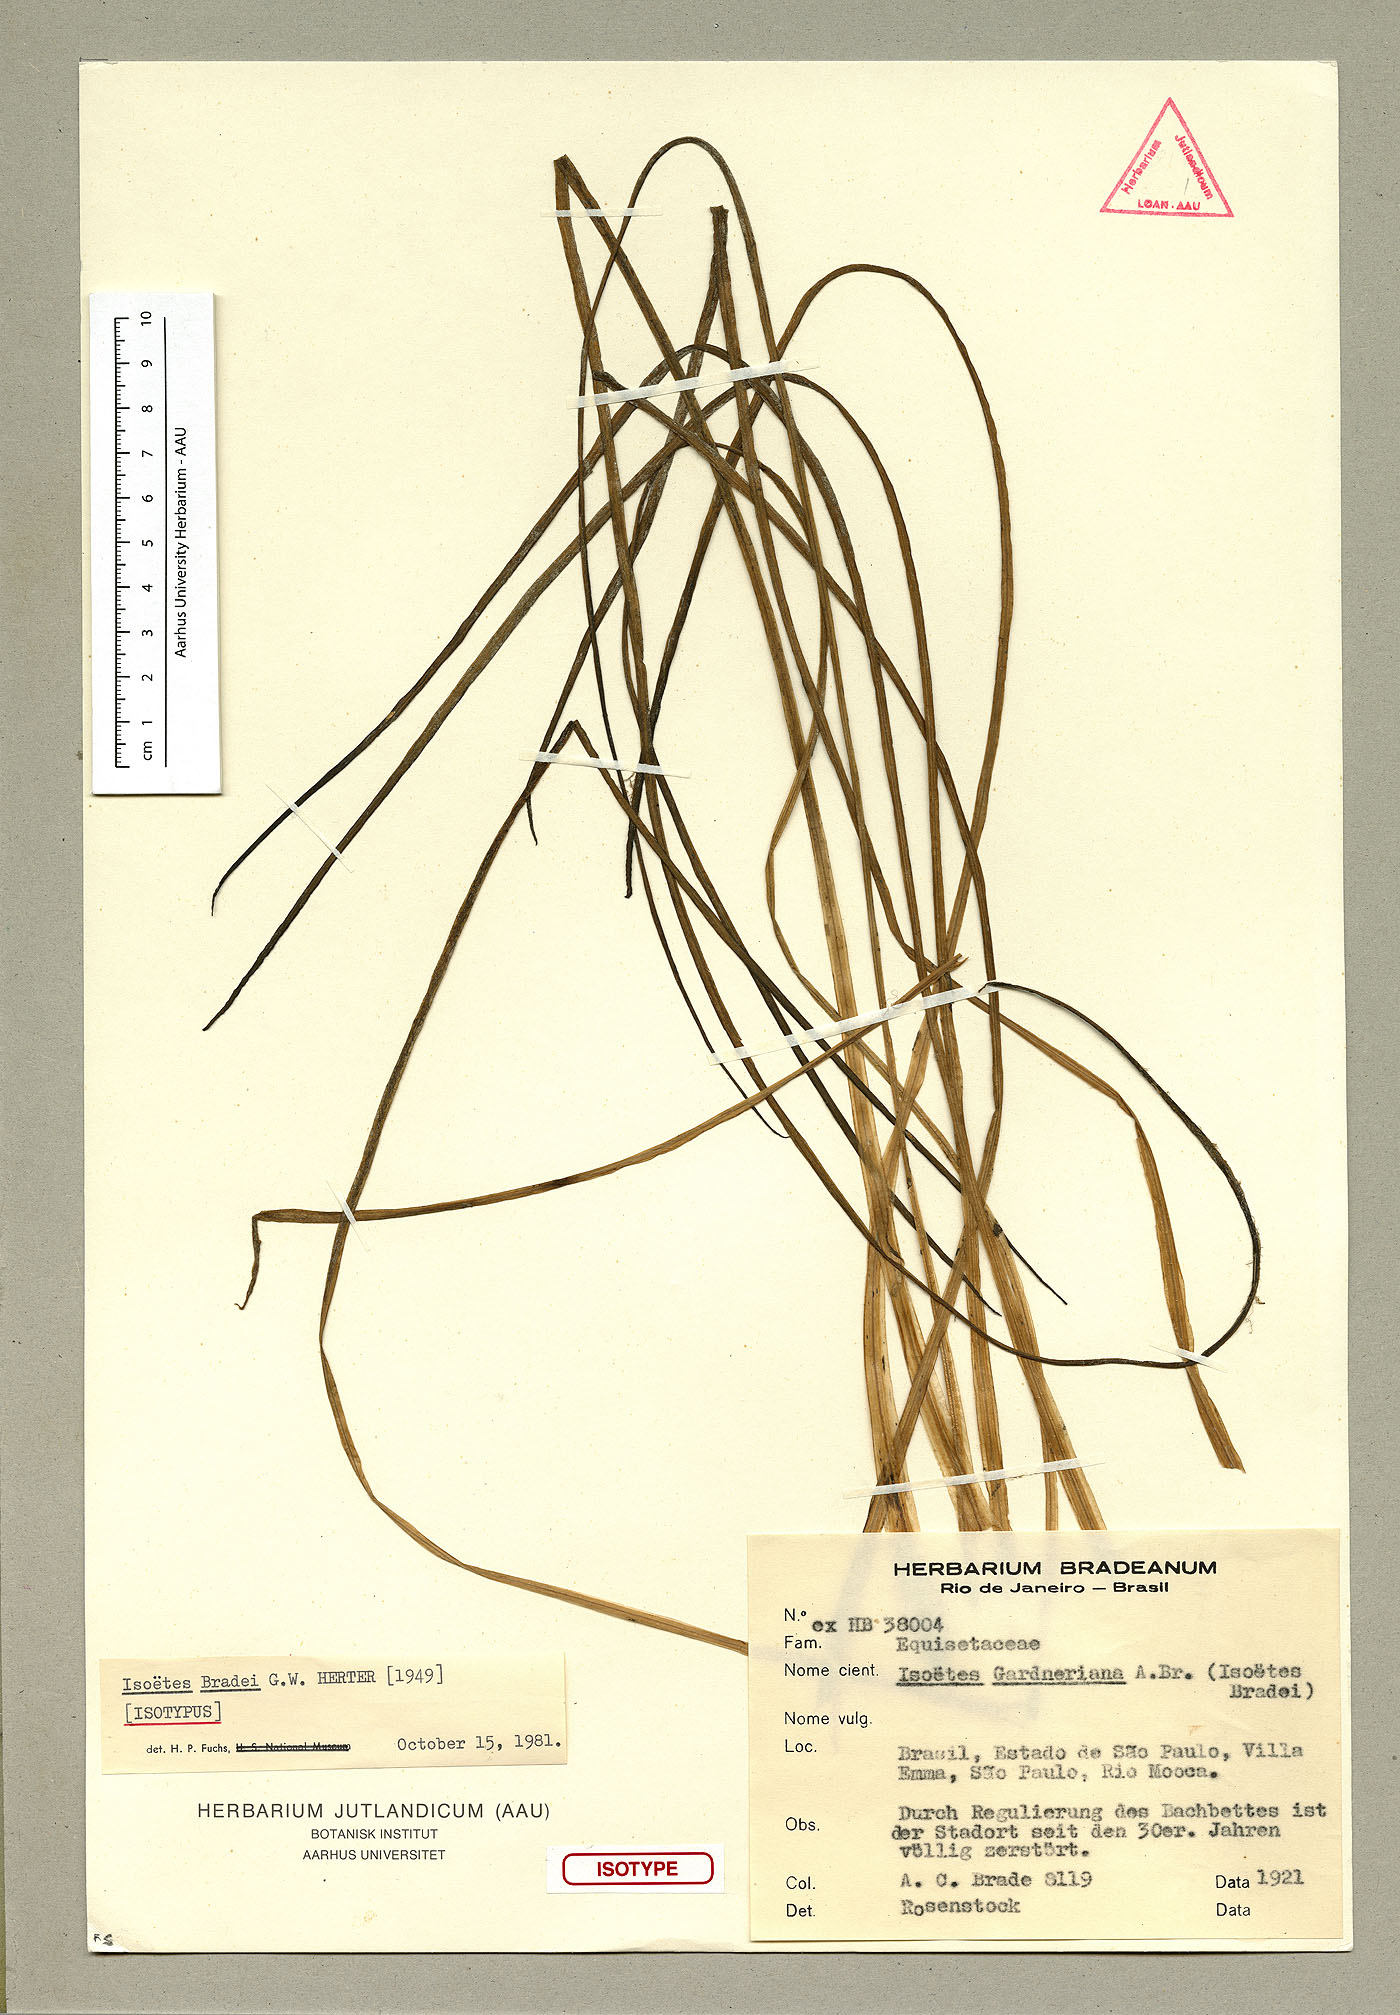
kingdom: Plantae
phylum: Tracheophyta
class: Lycopodiopsida
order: Isoetales
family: Isoetaceae
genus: Isoetes
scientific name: Isoetes bradei
